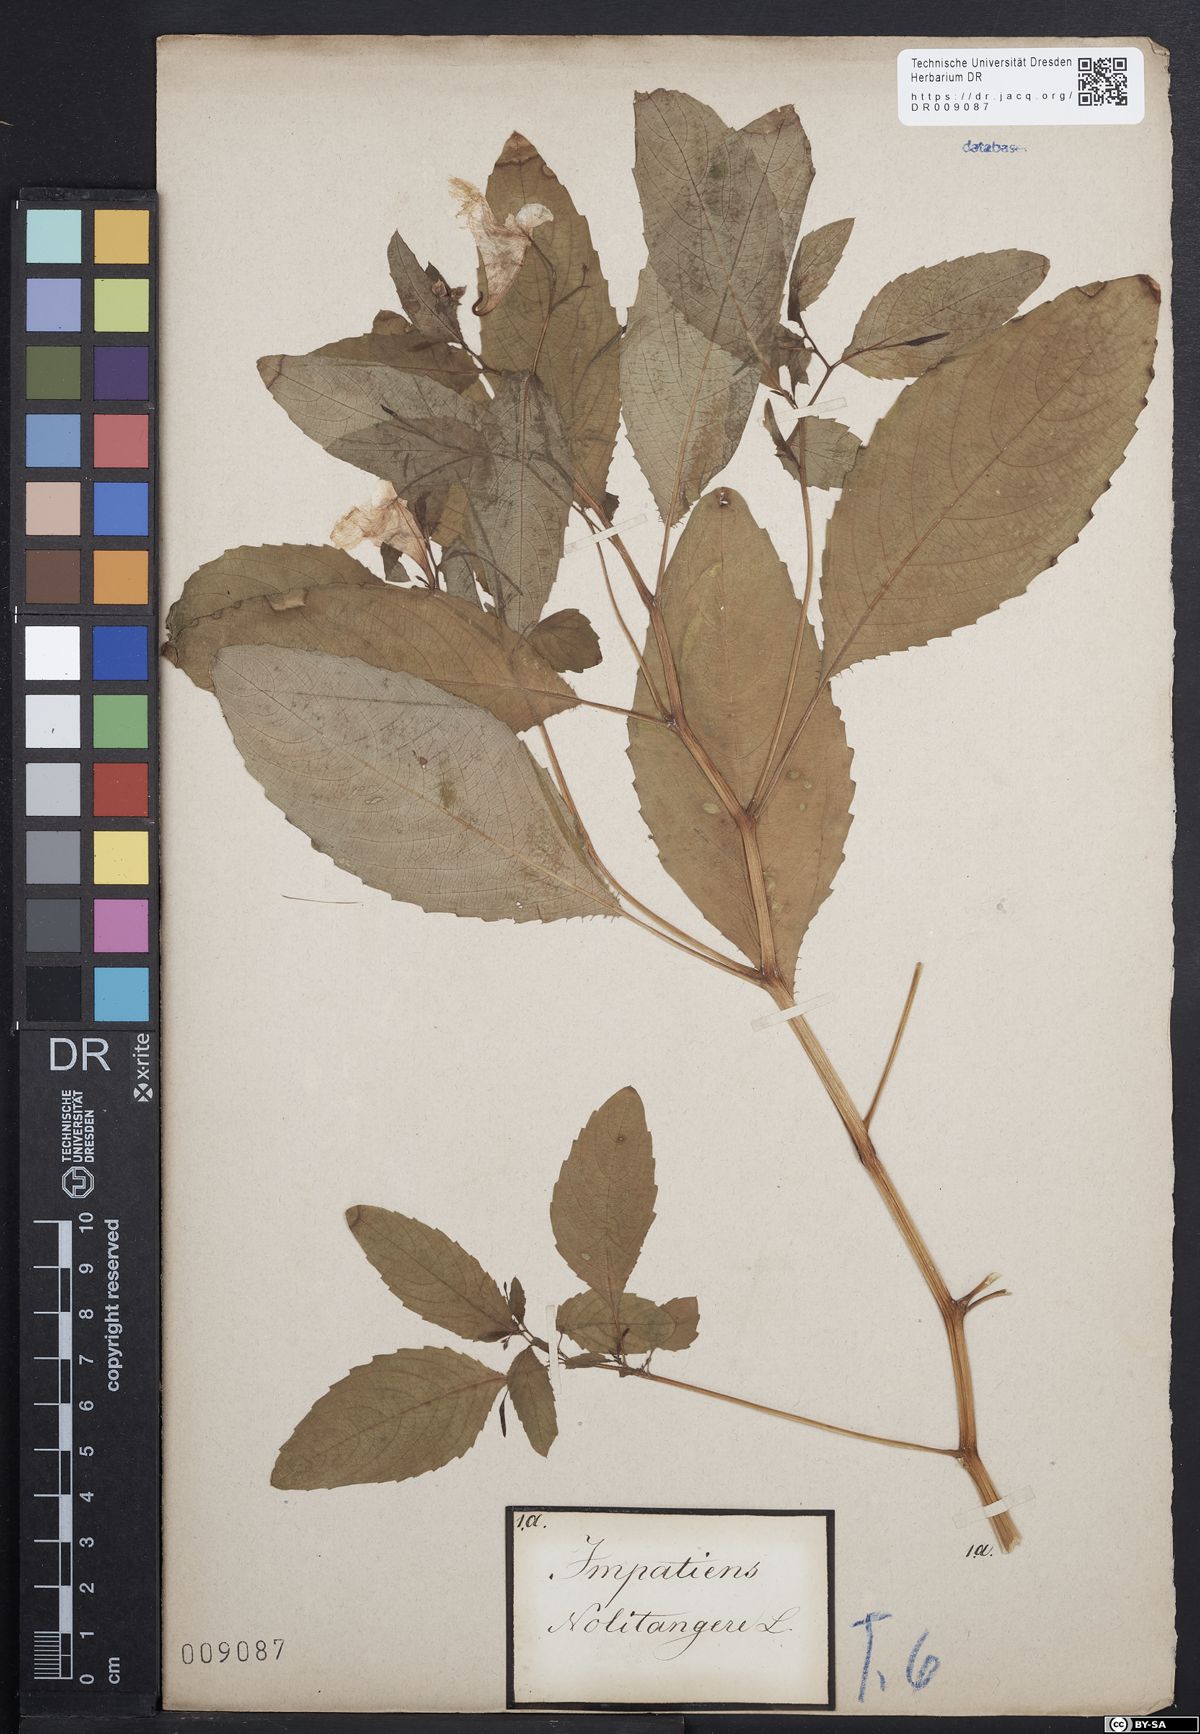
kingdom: Plantae
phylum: Tracheophyta
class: Magnoliopsida
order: Ericales
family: Balsaminaceae
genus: Impatiens
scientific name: Impatiens noli-tangere
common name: Touch-me-not balsam
